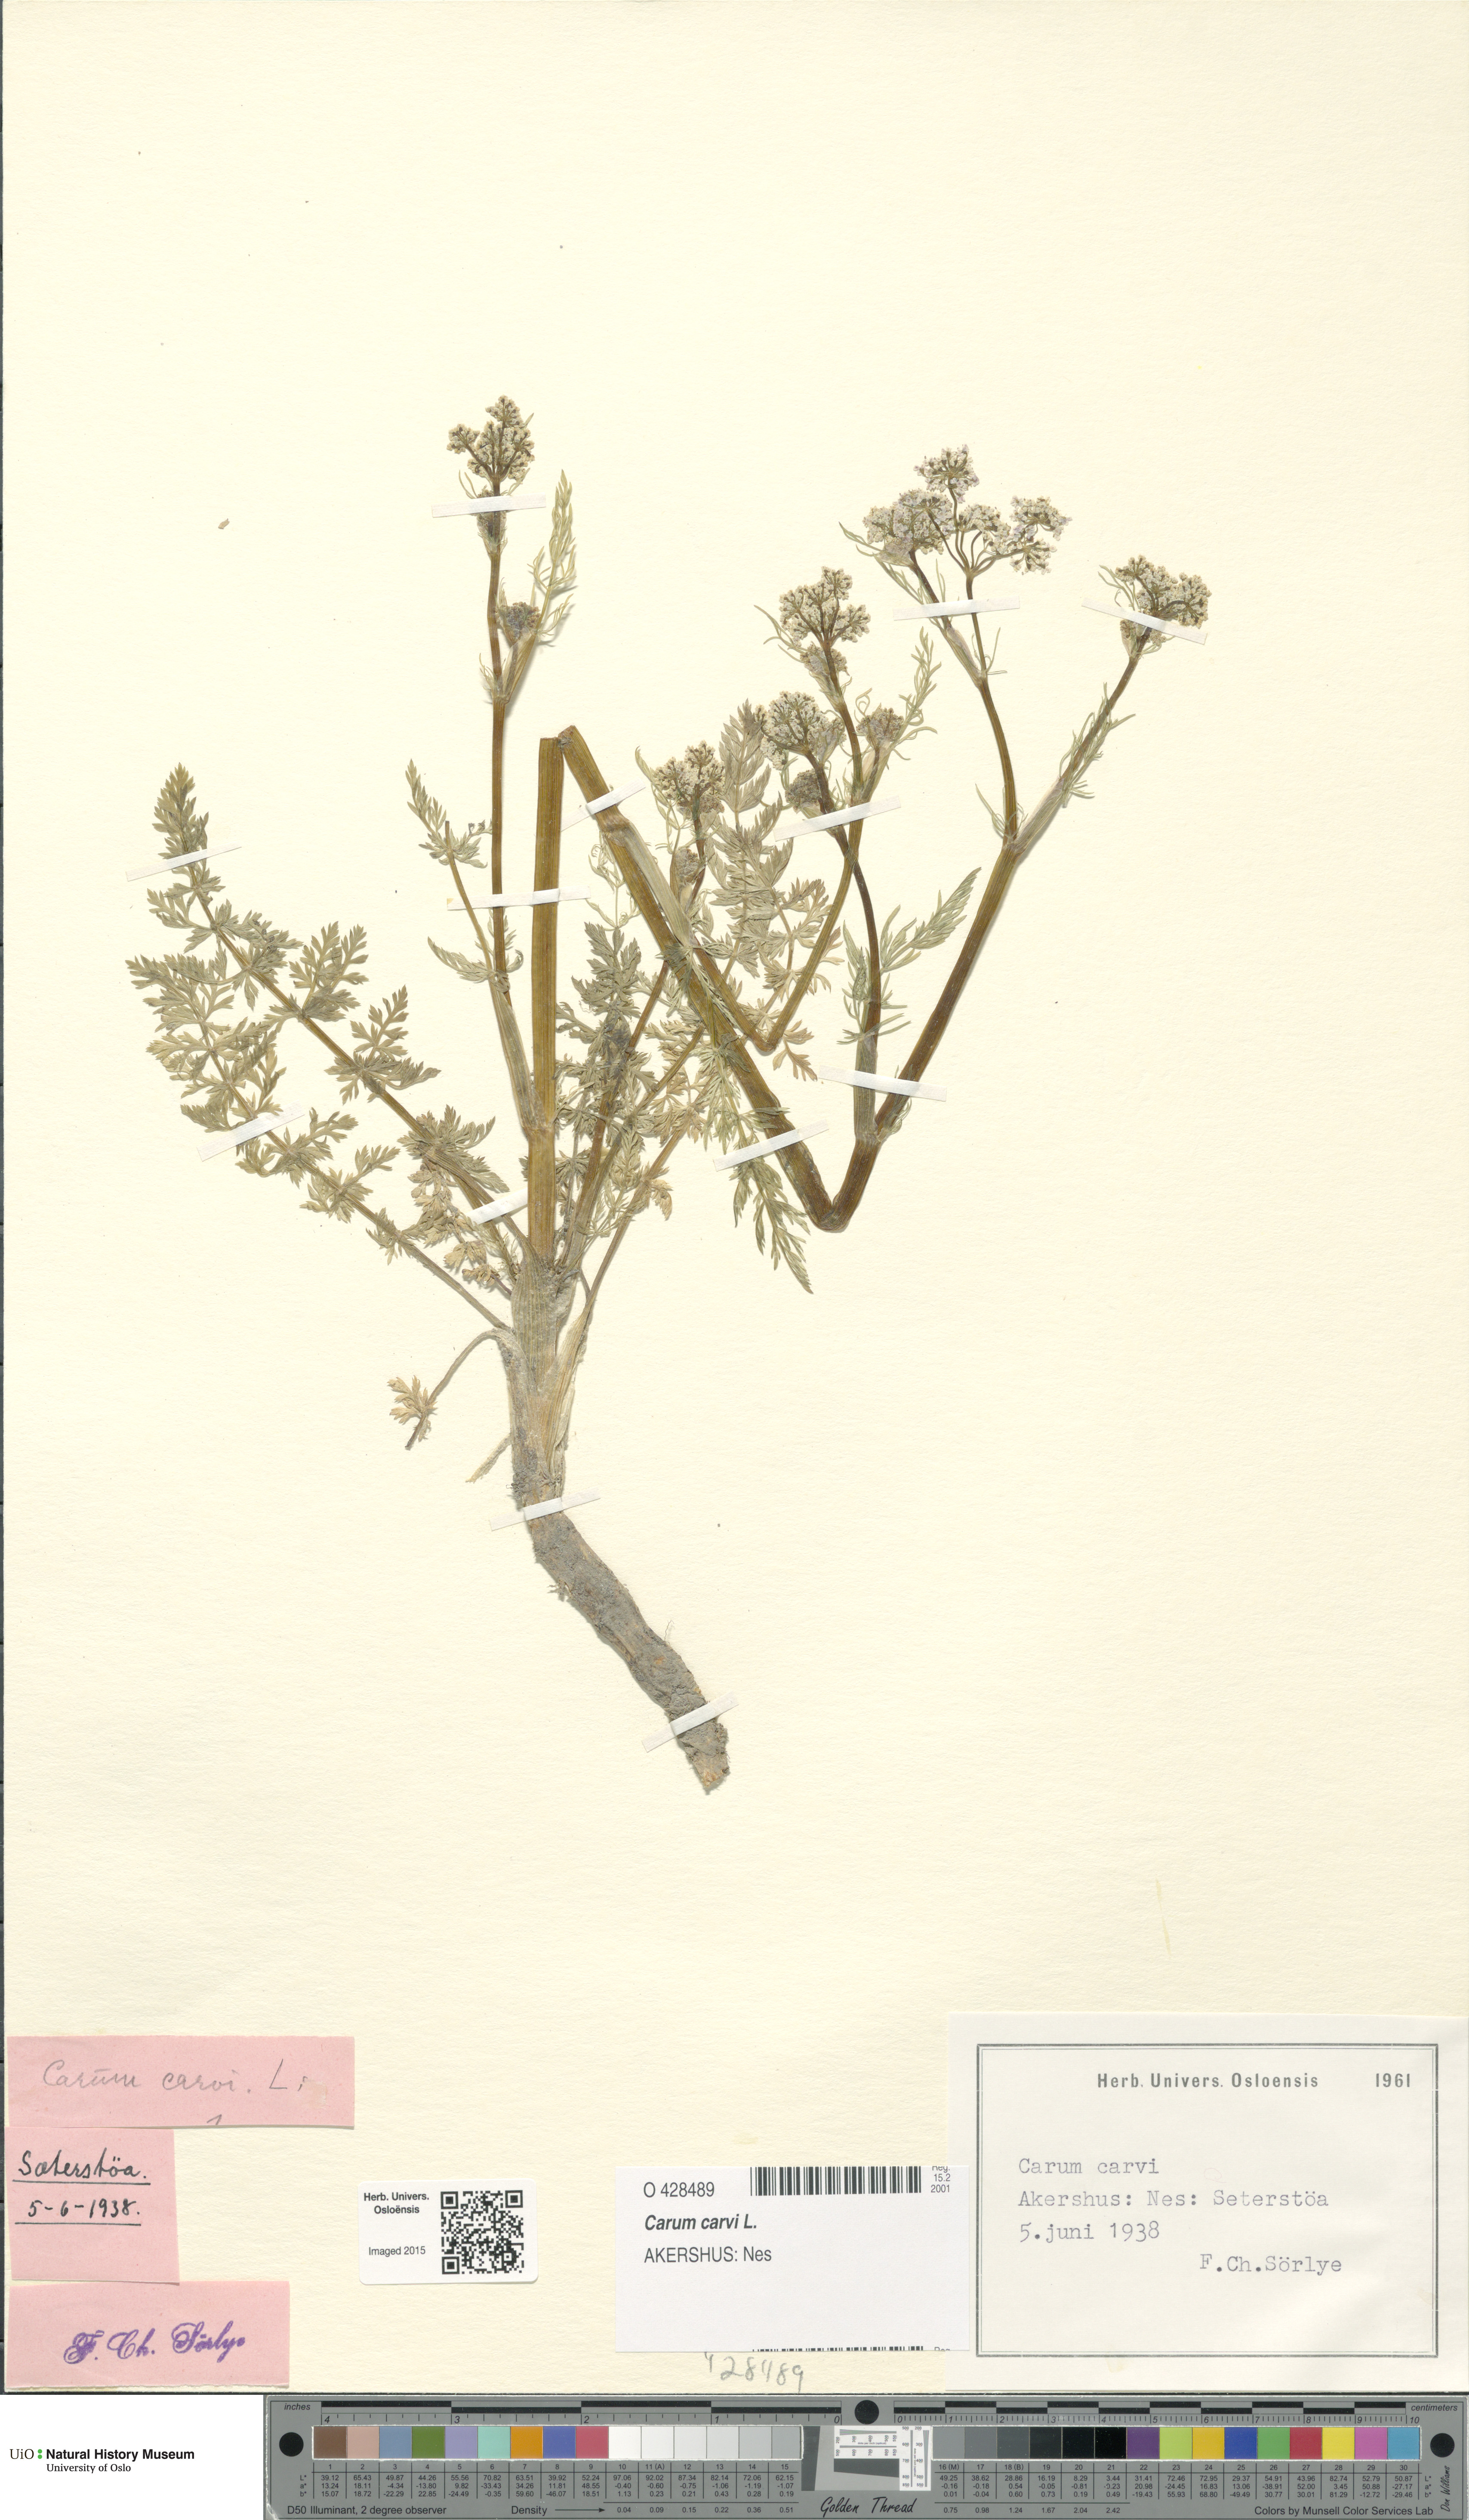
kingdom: Plantae
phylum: Tracheophyta
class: Magnoliopsida
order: Apiales
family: Apiaceae
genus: Carum
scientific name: Carum carvi
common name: Caraway
